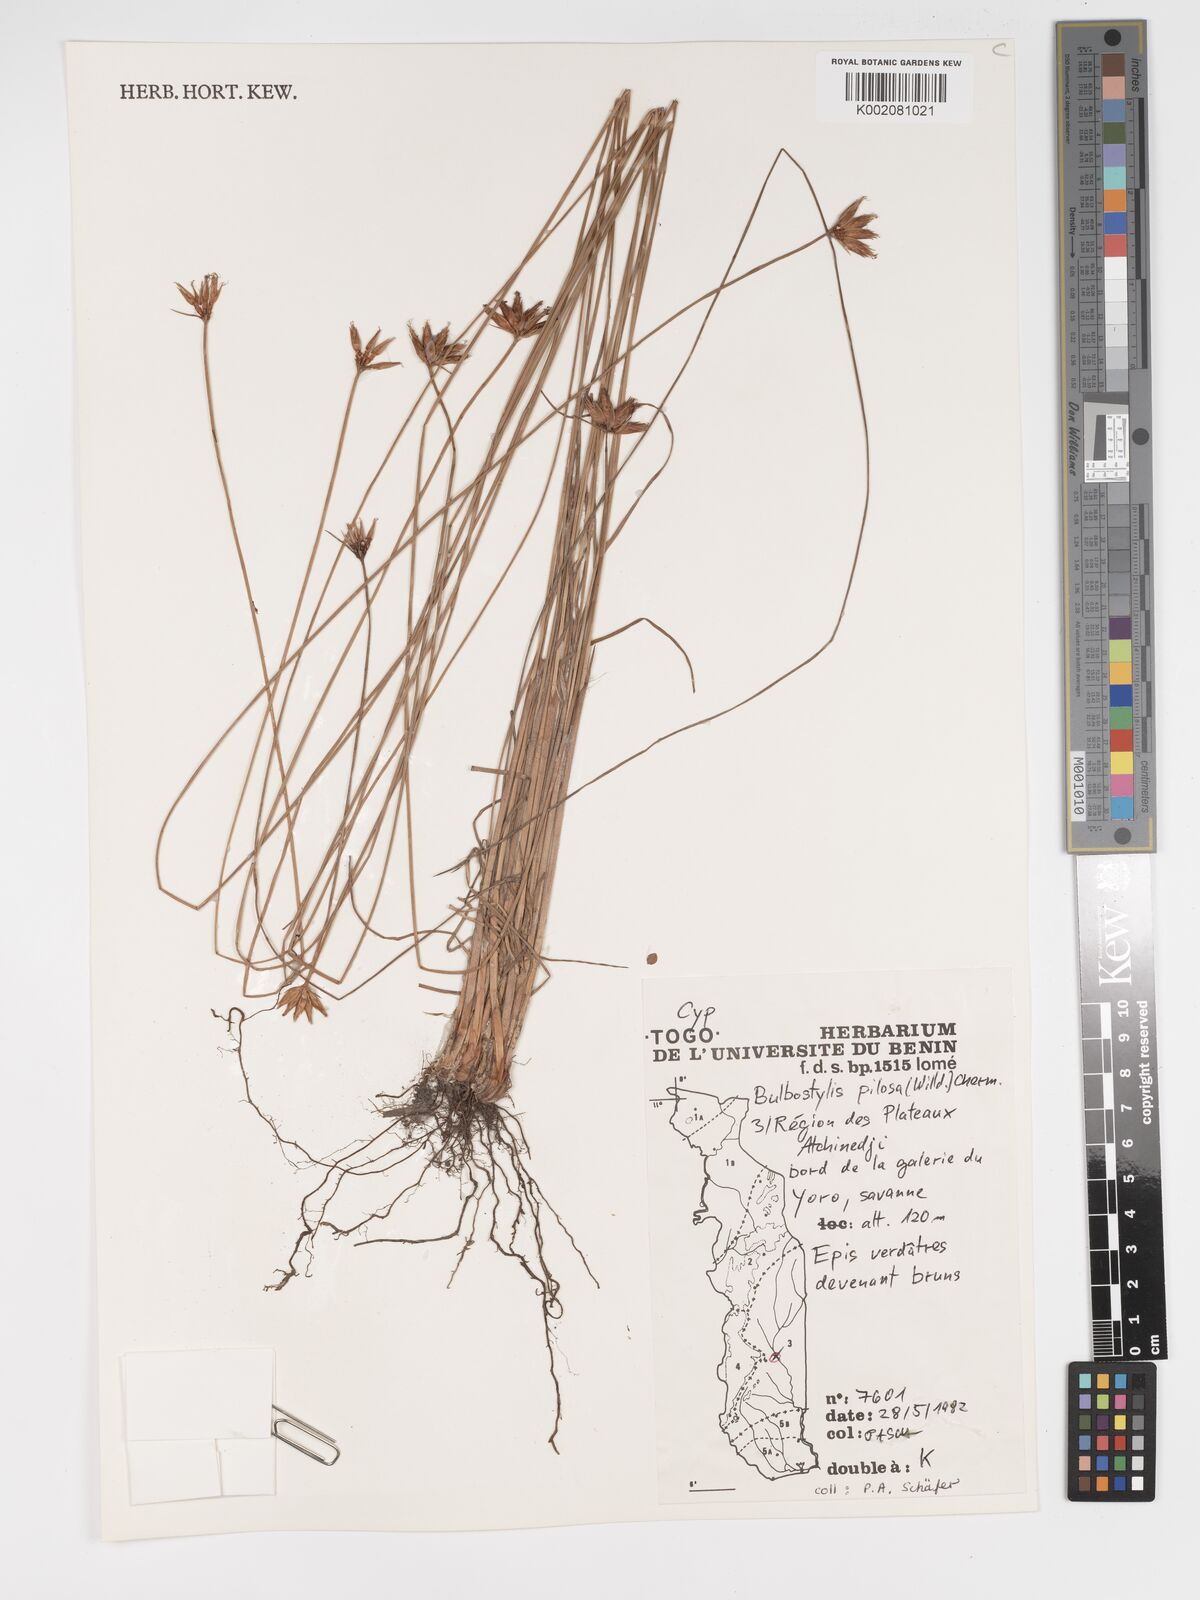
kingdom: Plantae
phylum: Tracheophyta
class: Liliopsida
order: Poales
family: Cyperaceae
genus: Bulbostylis
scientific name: Bulbostylis pilosa
